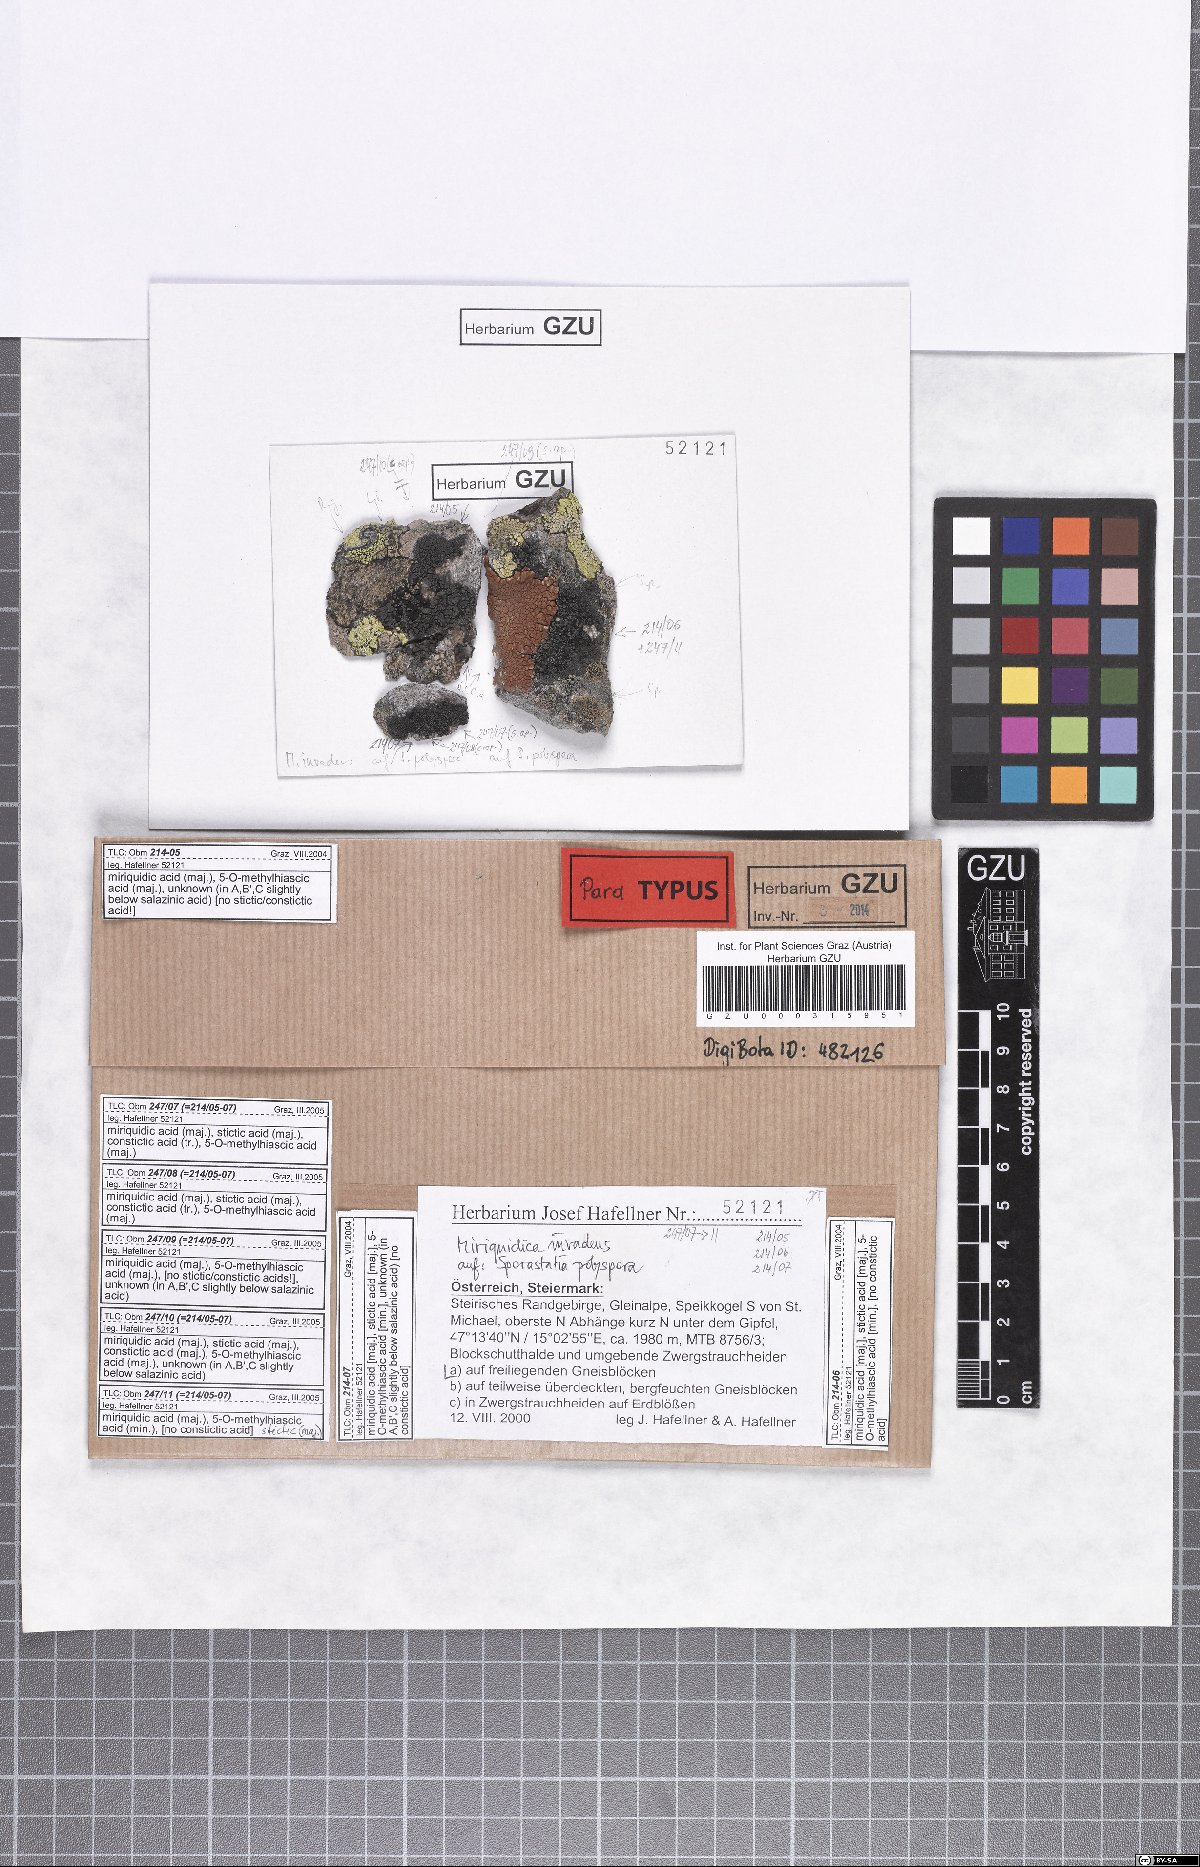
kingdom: Fungi
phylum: Ascomycota
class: Lecanoromycetes
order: Lecanorales
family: Lecanoraceae
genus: Miriquidica
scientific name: Miriquidica invadens
